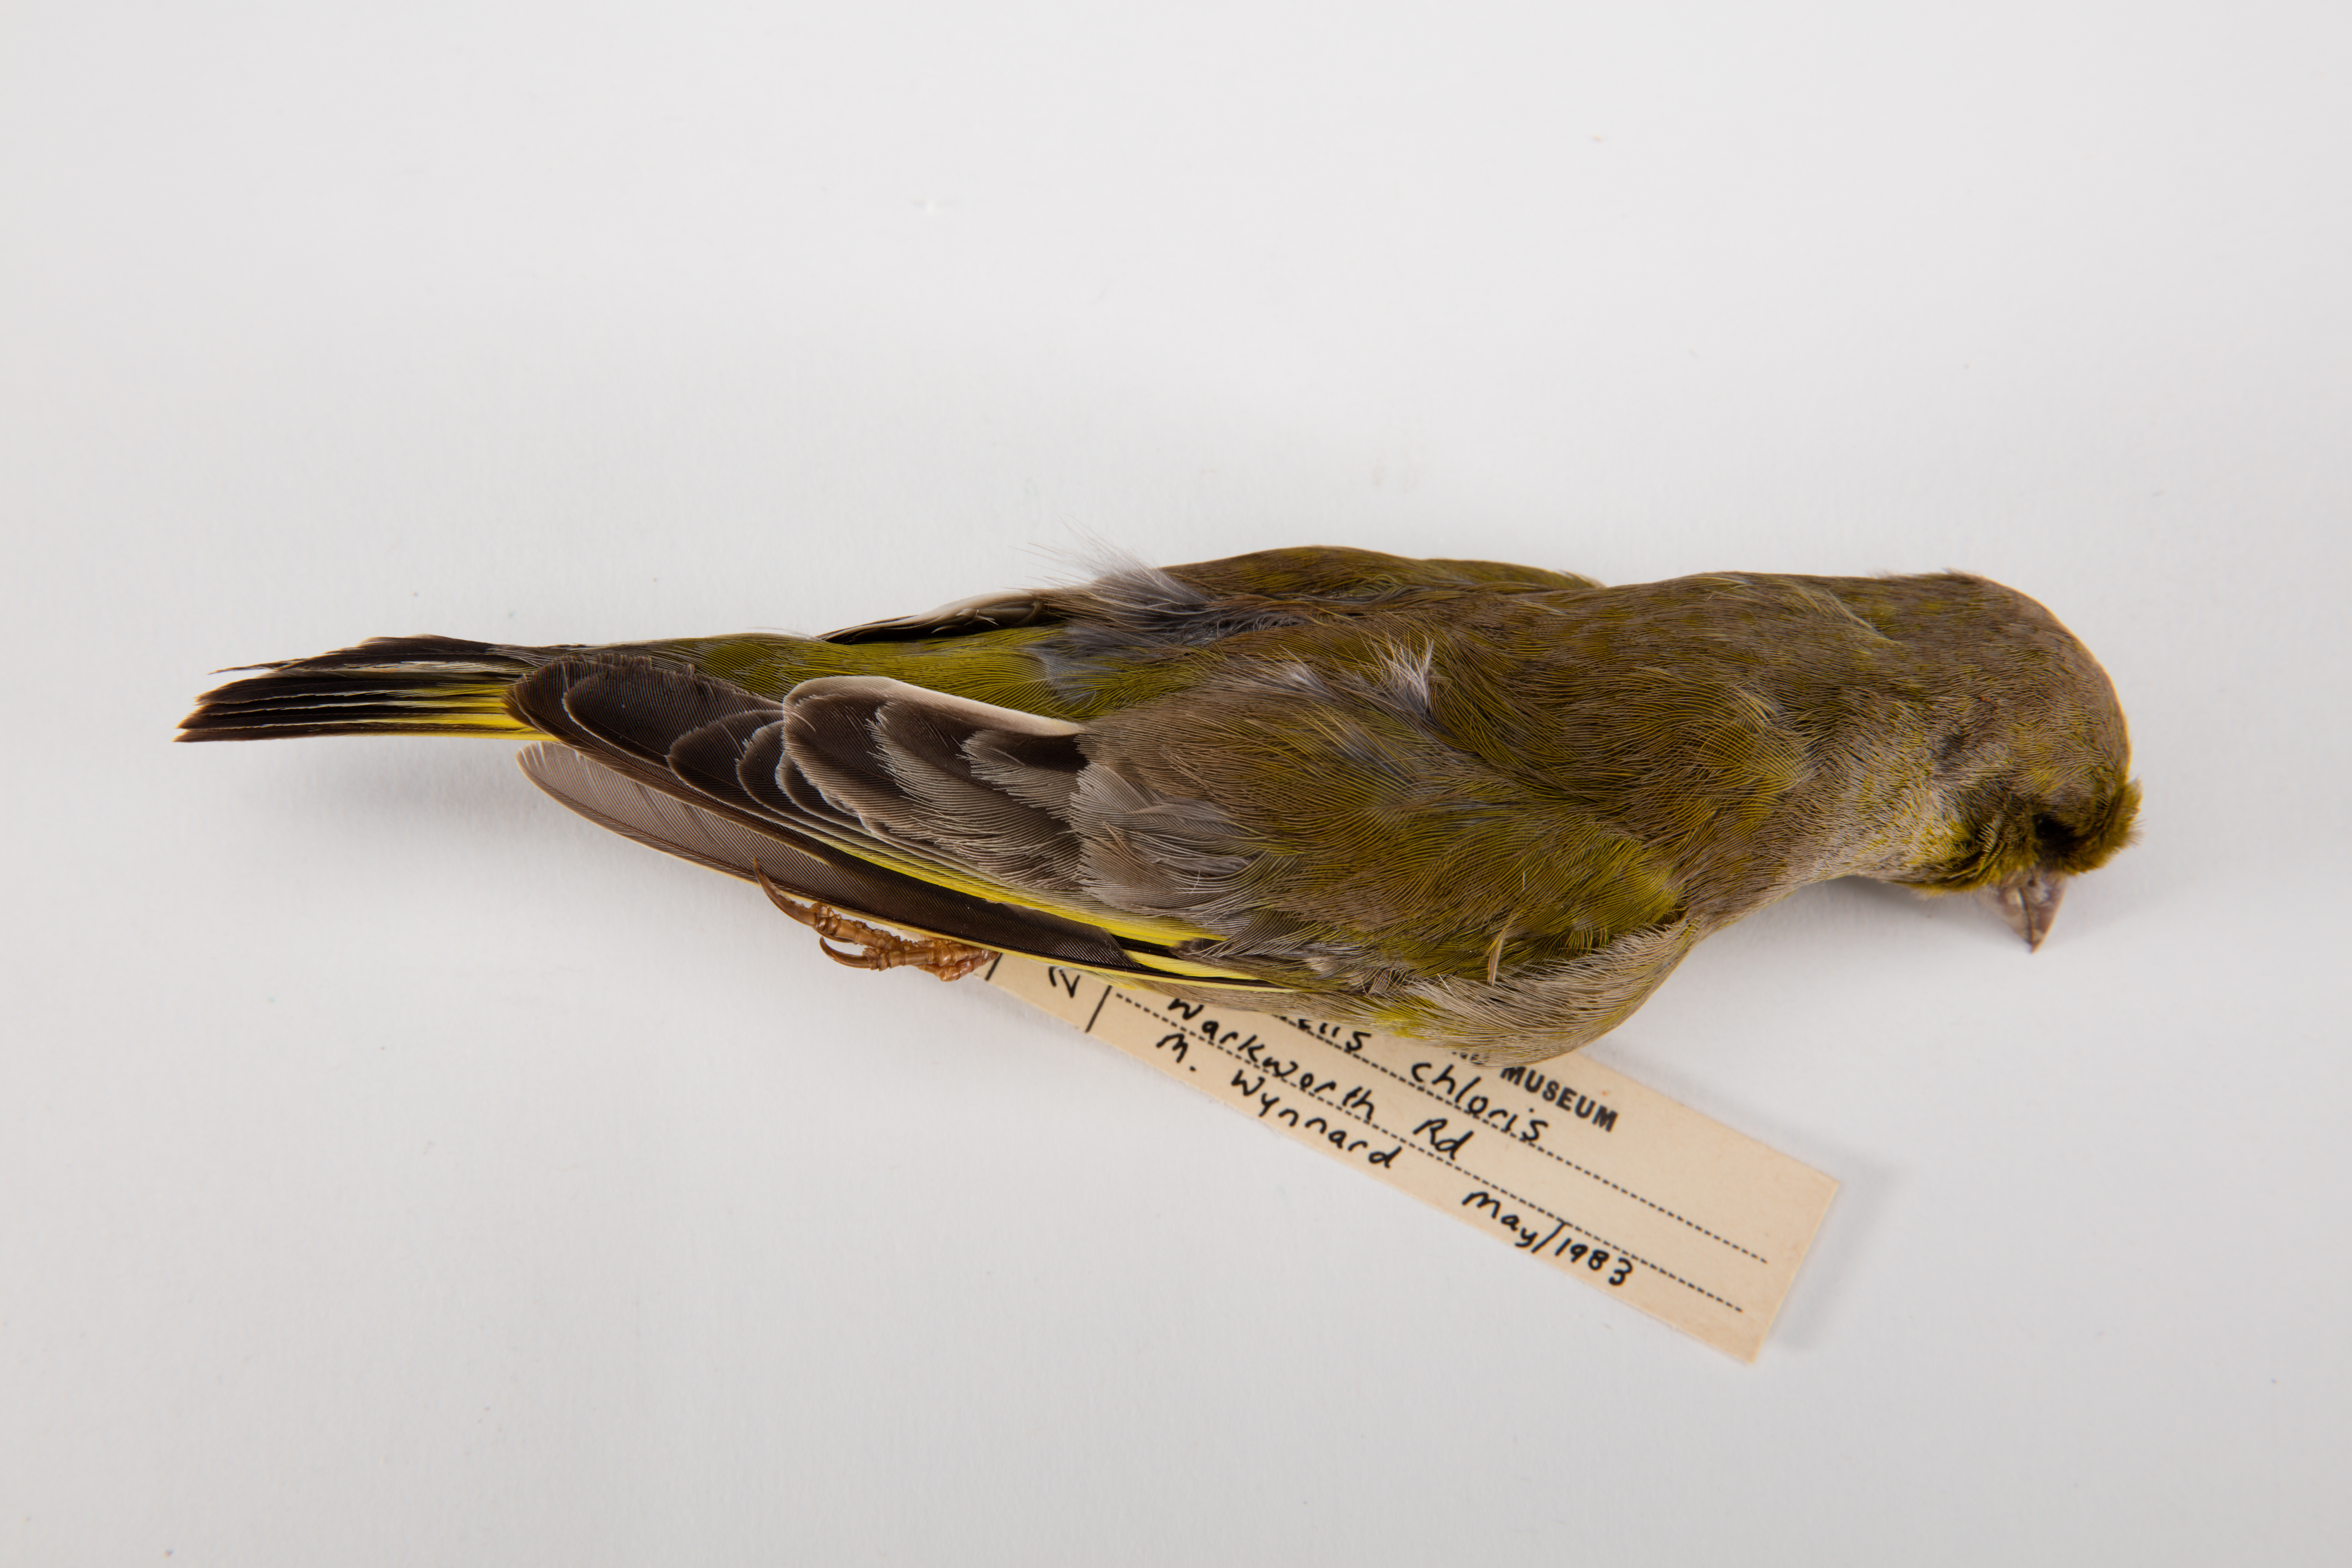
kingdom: Plantae
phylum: Tracheophyta
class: Liliopsida
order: Poales
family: Poaceae
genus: Chloris
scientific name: Chloris chloris
